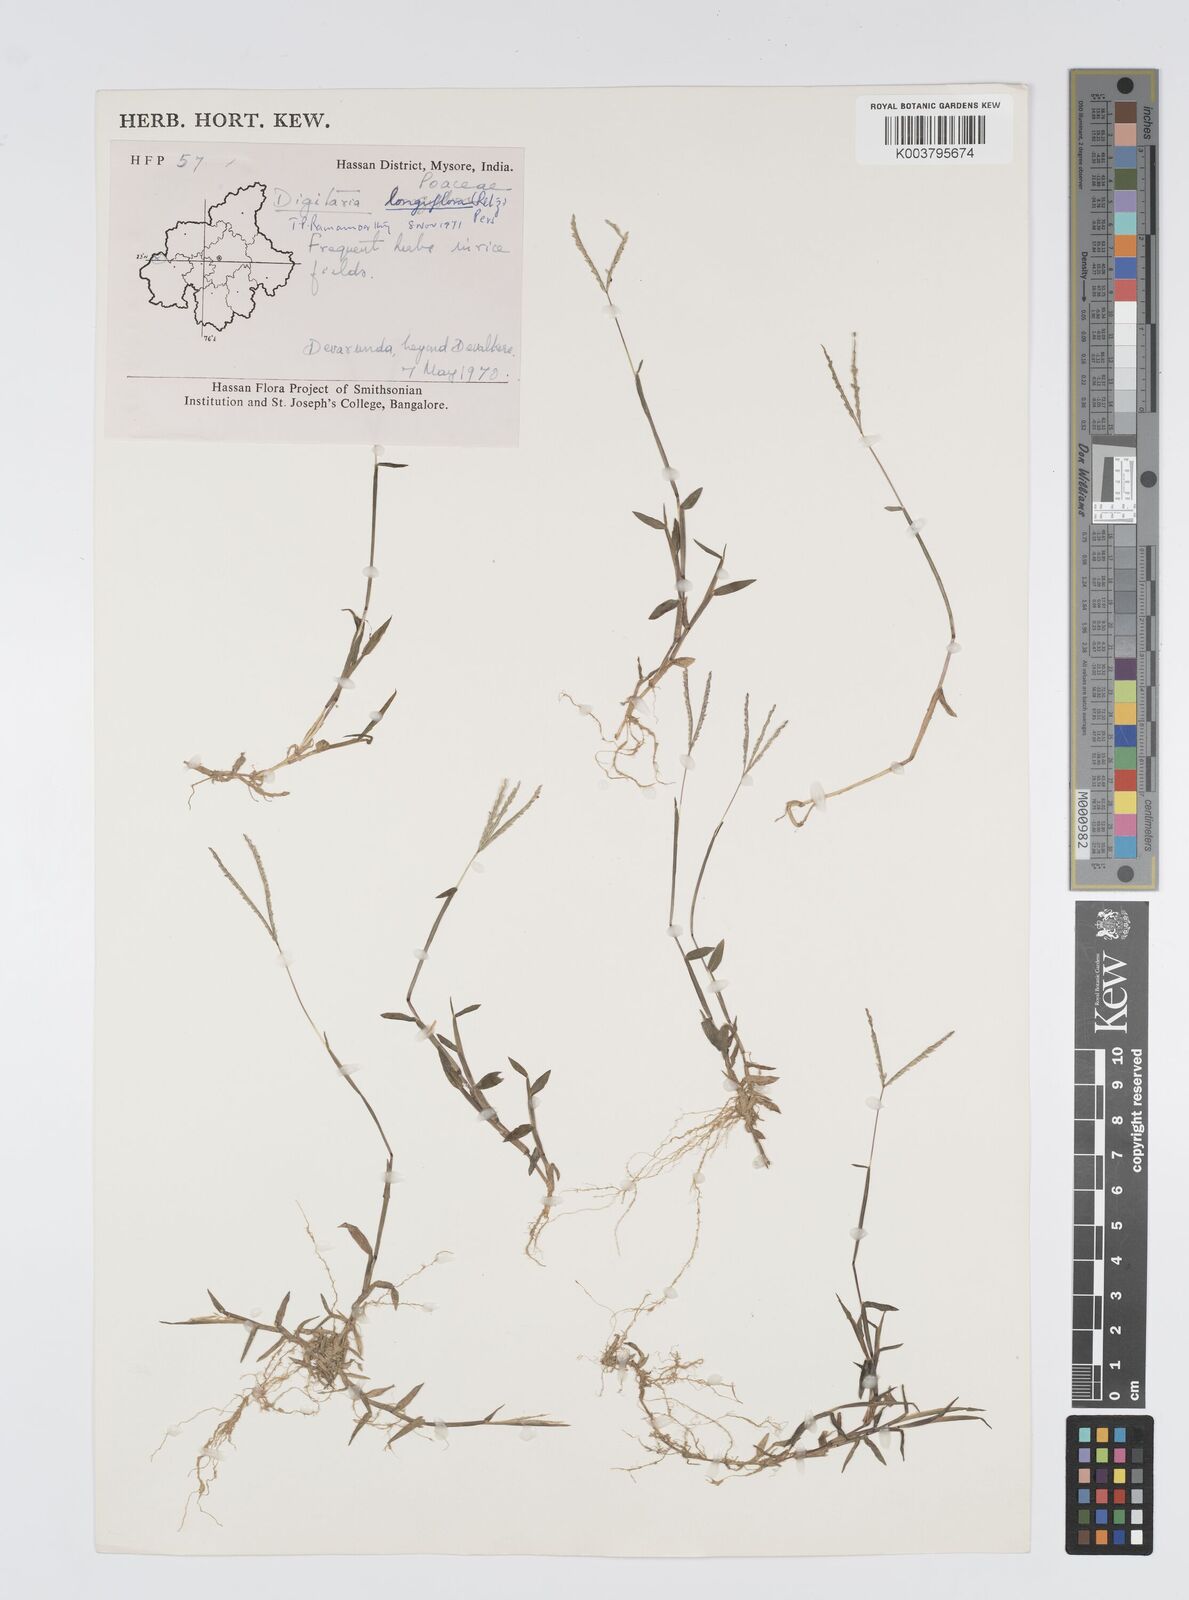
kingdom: Plantae
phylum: Tracheophyta
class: Liliopsida
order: Poales
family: Poaceae
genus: Digitaria
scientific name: Digitaria longiflora
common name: Wire crabgrass
